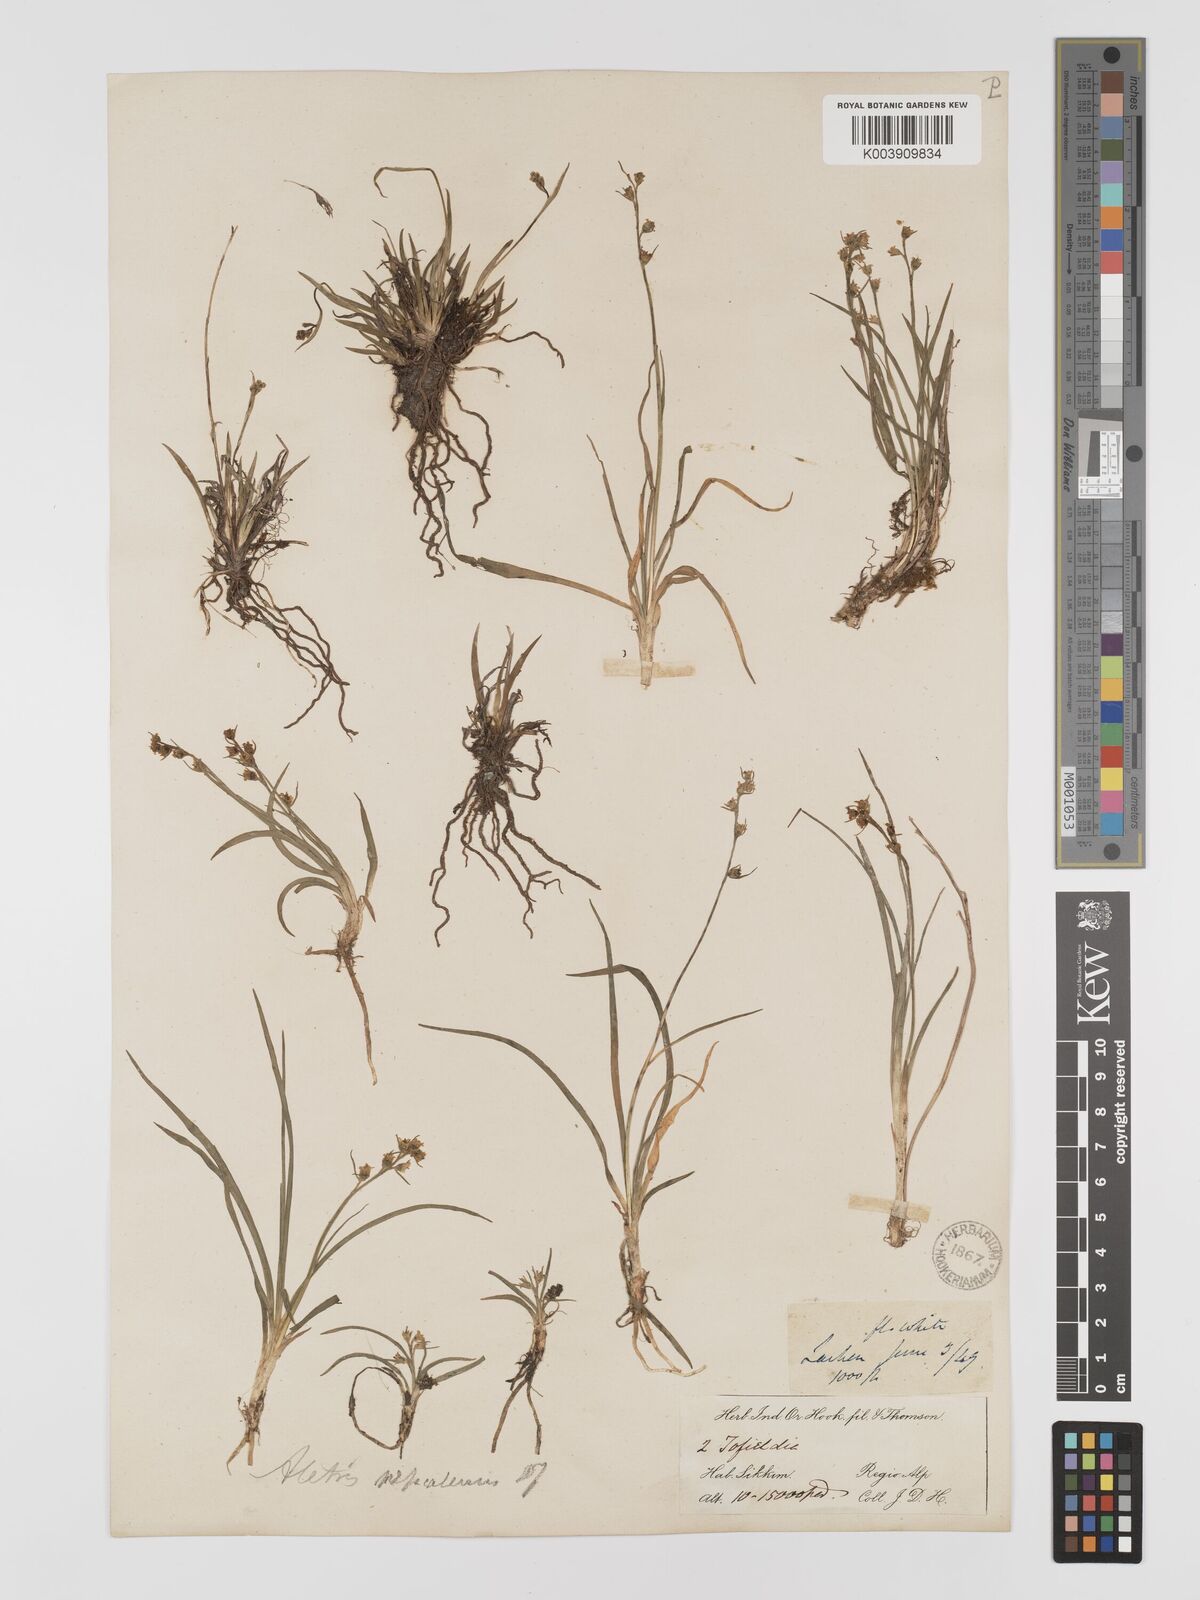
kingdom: Plantae
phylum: Tracheophyta
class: Liliopsida
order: Dioscoreales
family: Nartheciaceae
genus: Aletris
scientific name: Aletris pauciflora
